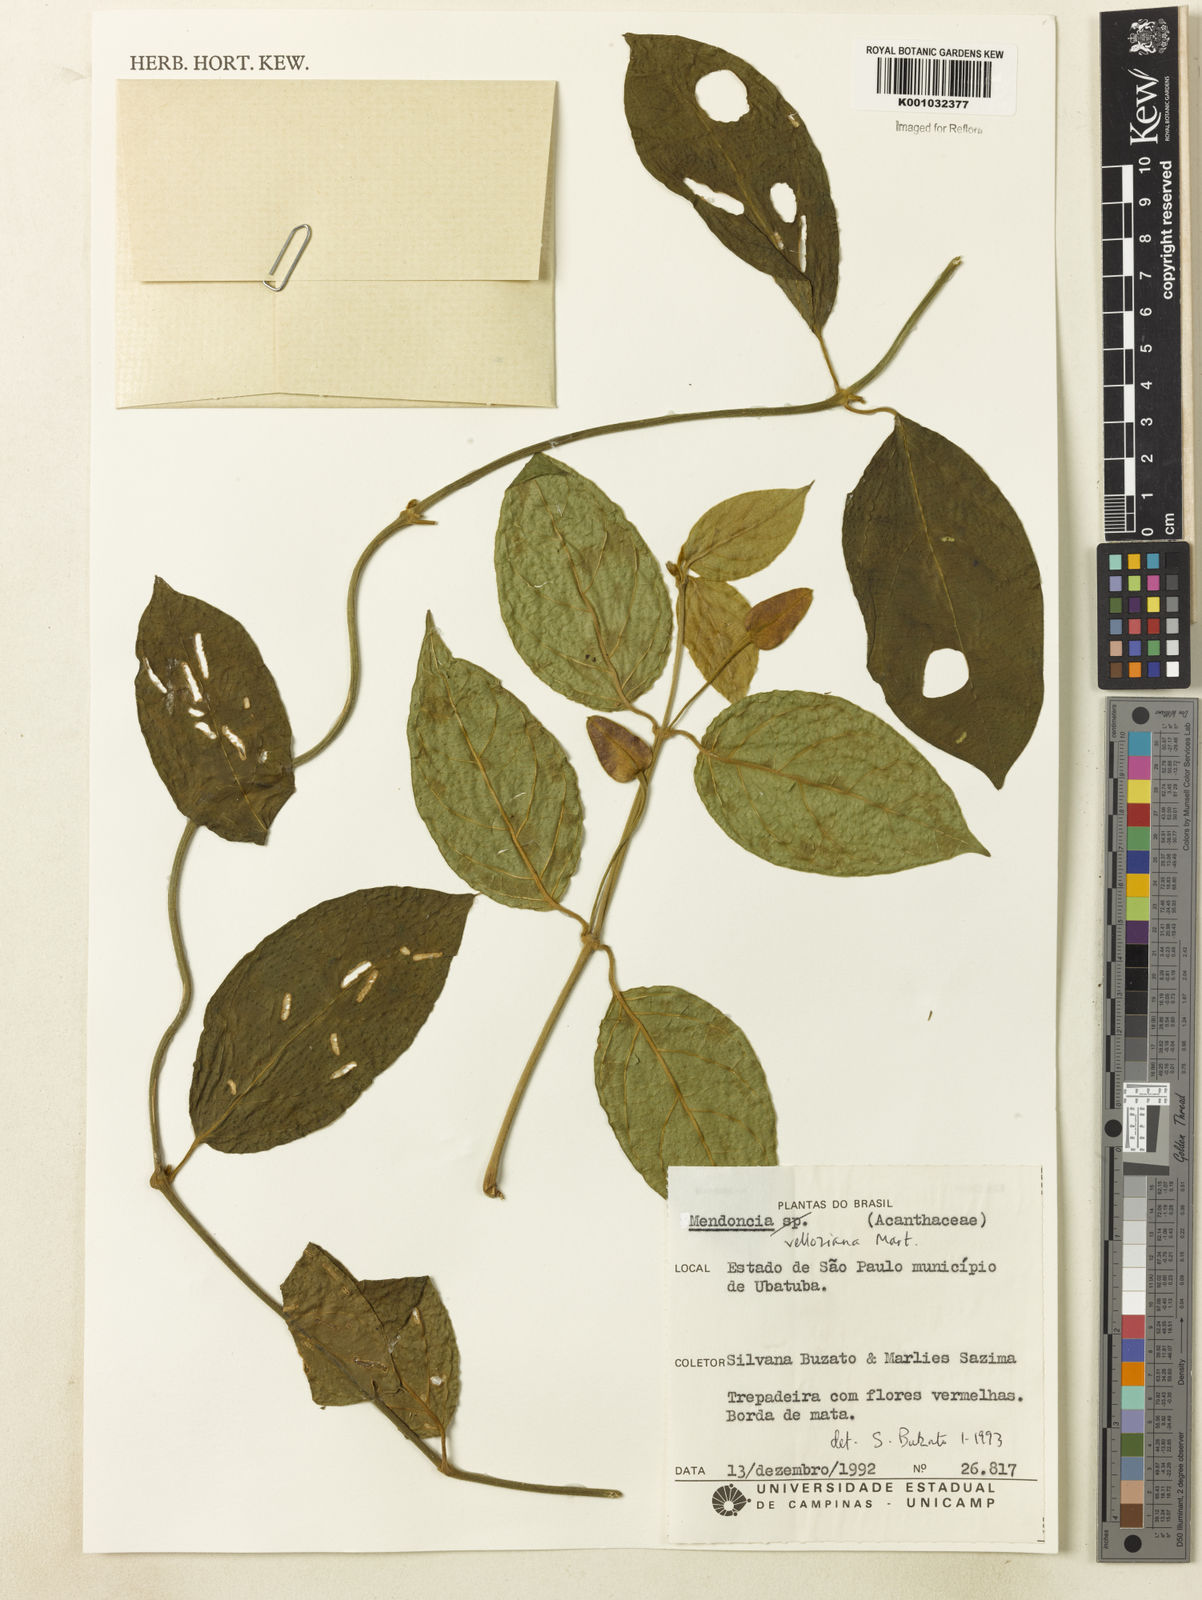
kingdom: Plantae
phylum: Tracheophyta
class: Magnoliopsida
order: Lamiales
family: Acanthaceae
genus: Mendoncia
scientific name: Mendoncia velloziana
